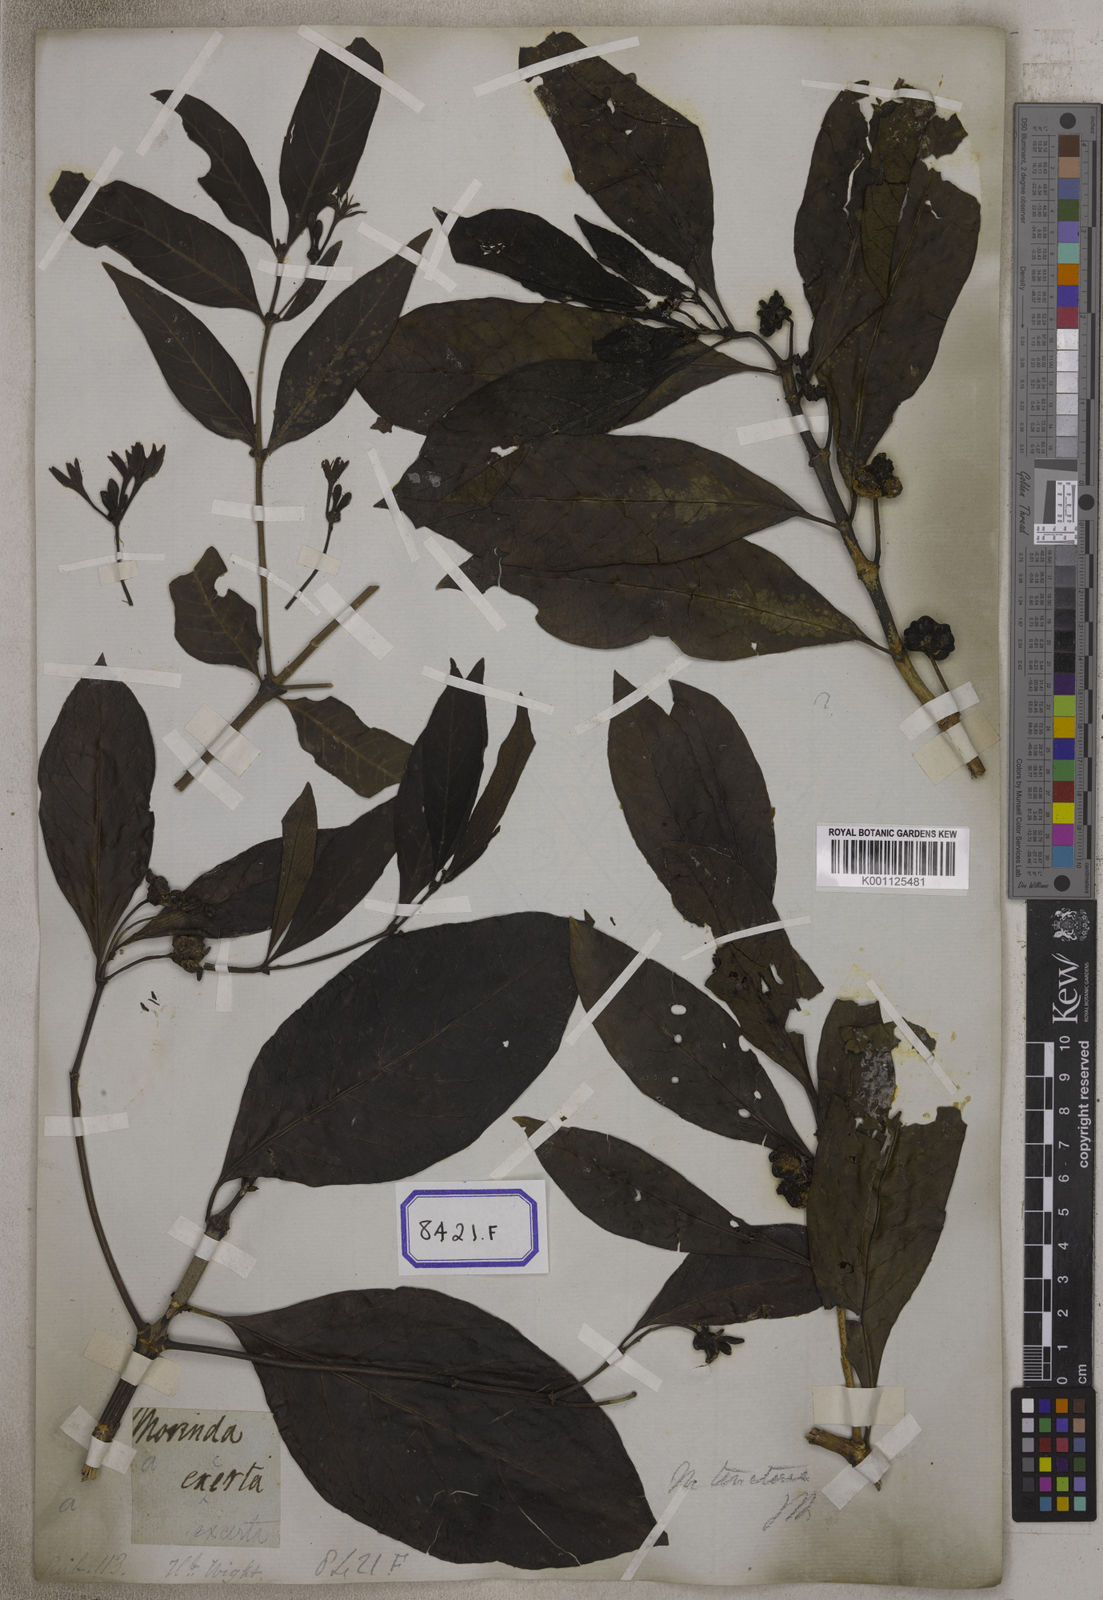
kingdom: Plantae
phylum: Tracheophyta
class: Magnoliopsida
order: Gentianales
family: Rubiaceae
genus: Morinda
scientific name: Morinda coreia
